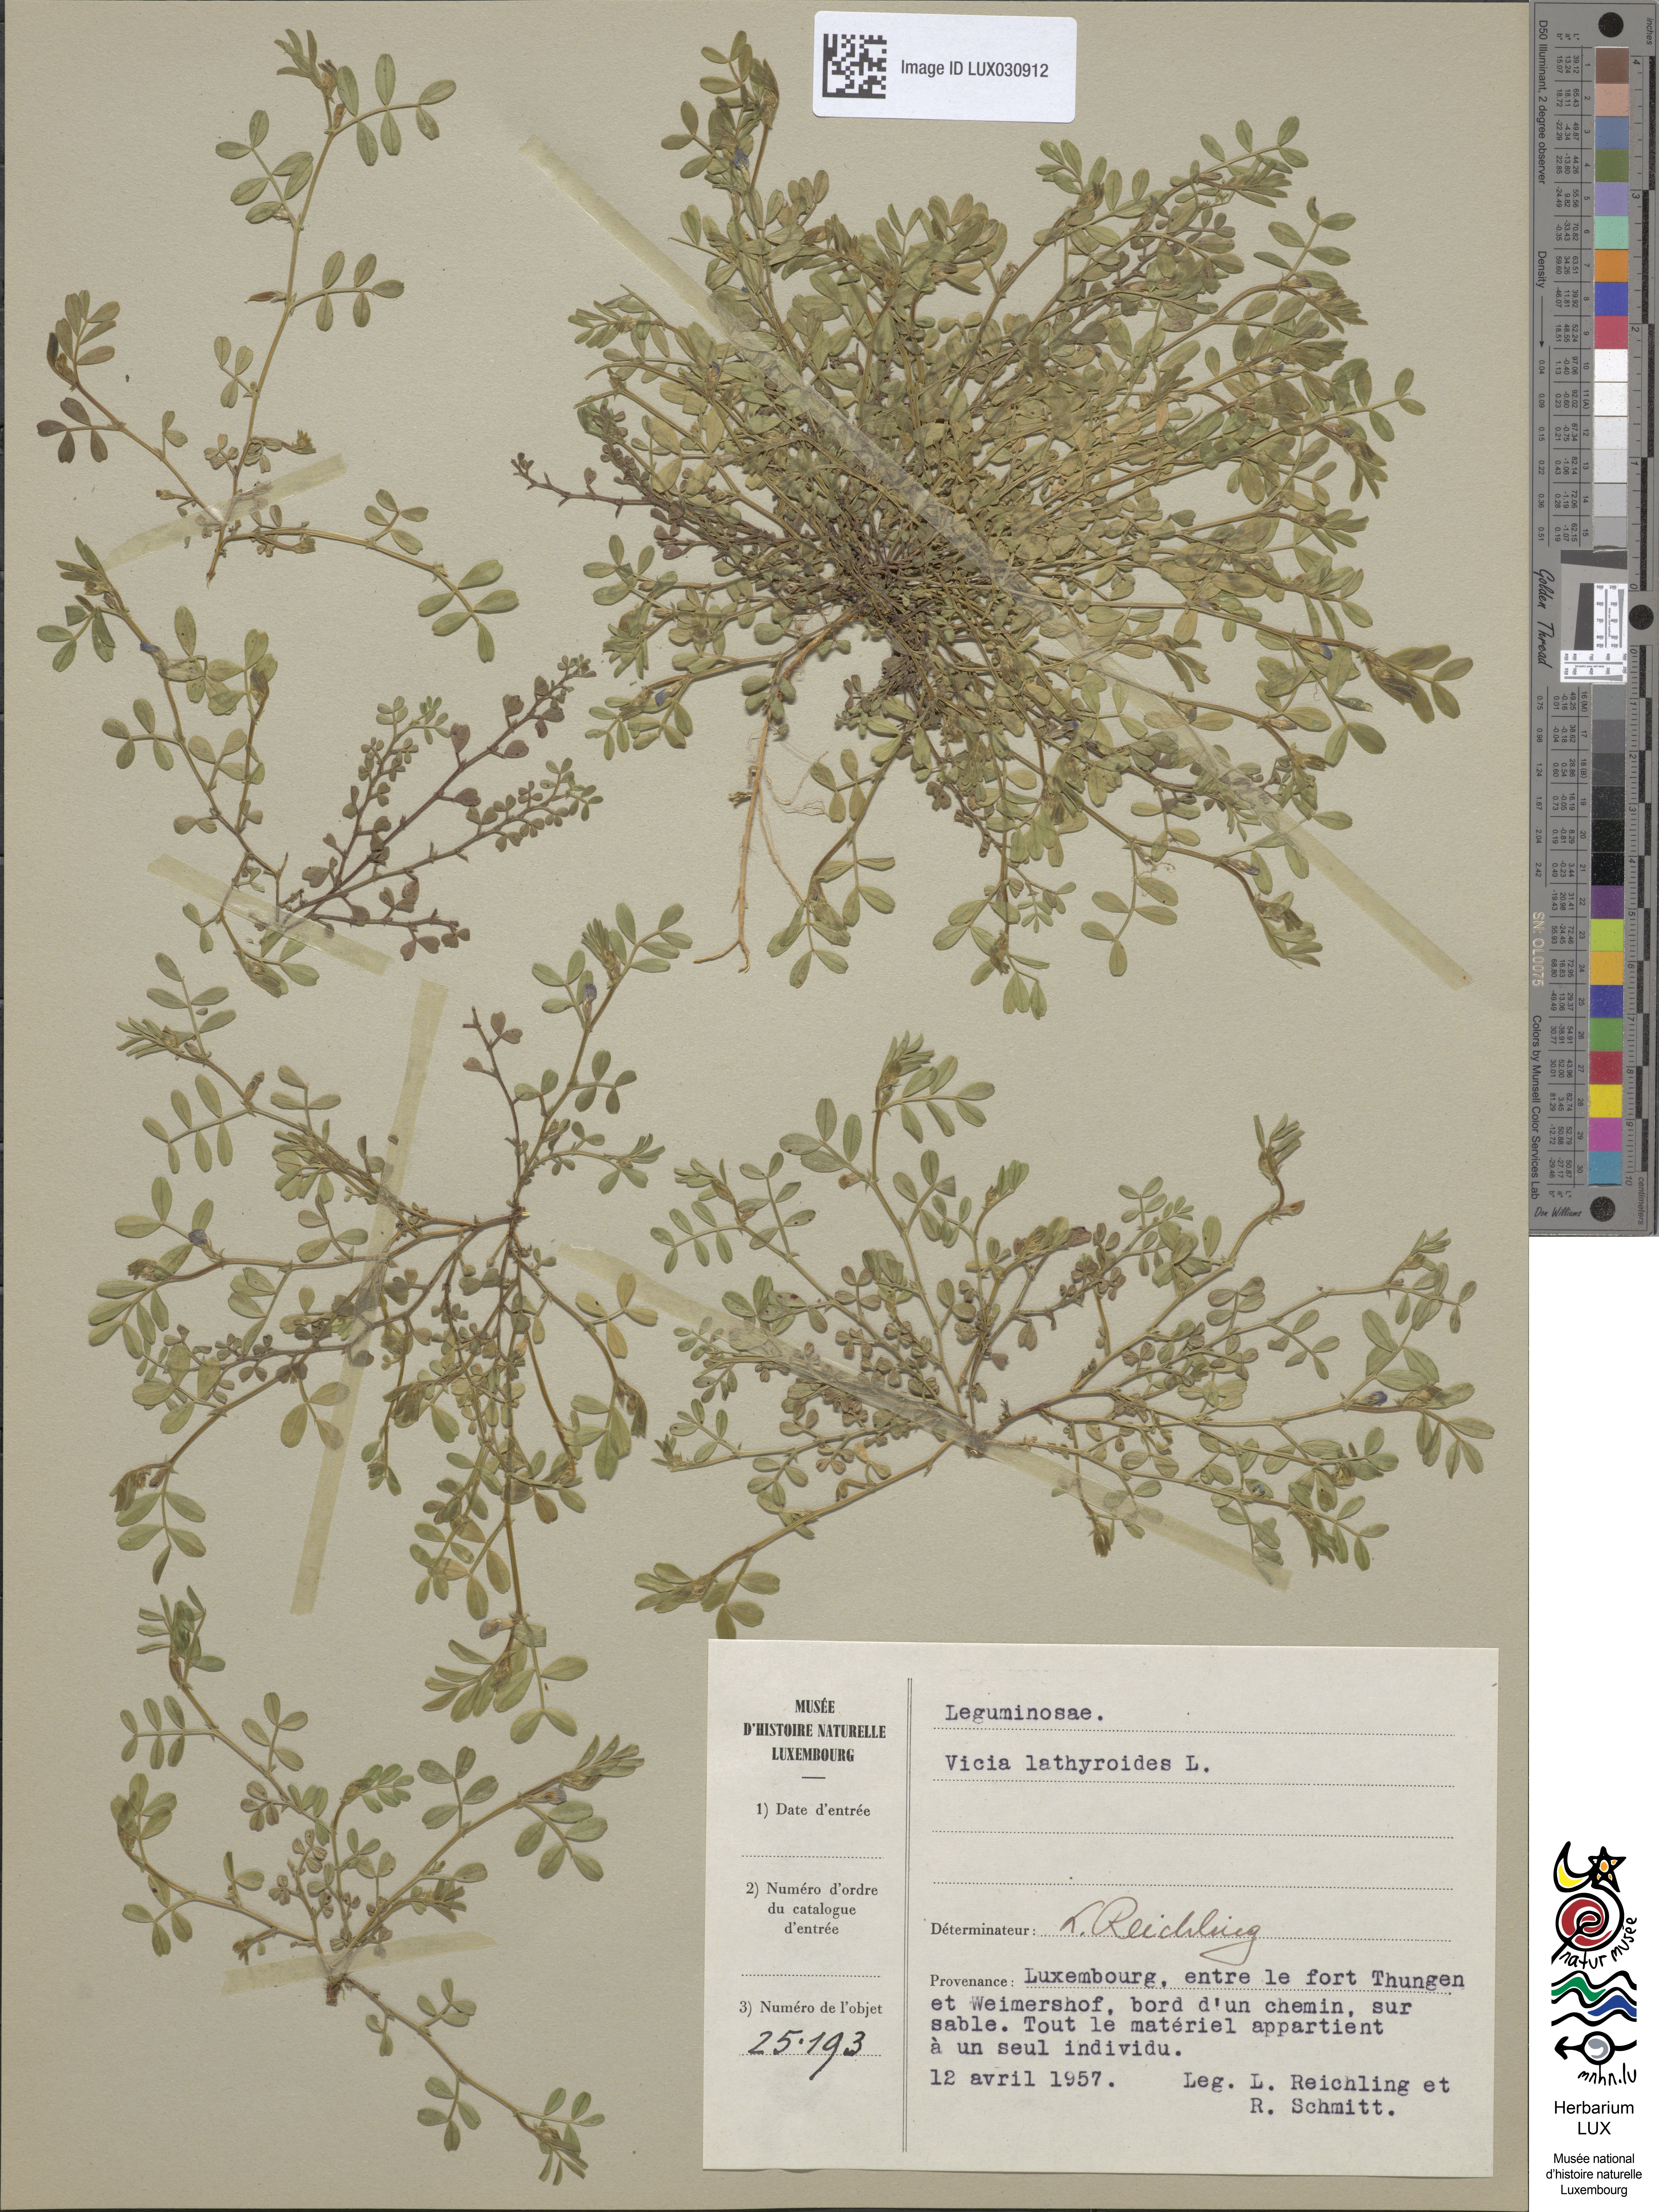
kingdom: Plantae
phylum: Tracheophyta
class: Magnoliopsida
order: Fabales
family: Fabaceae
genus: Vicia
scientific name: Vicia lathyroides
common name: Spring vetch
